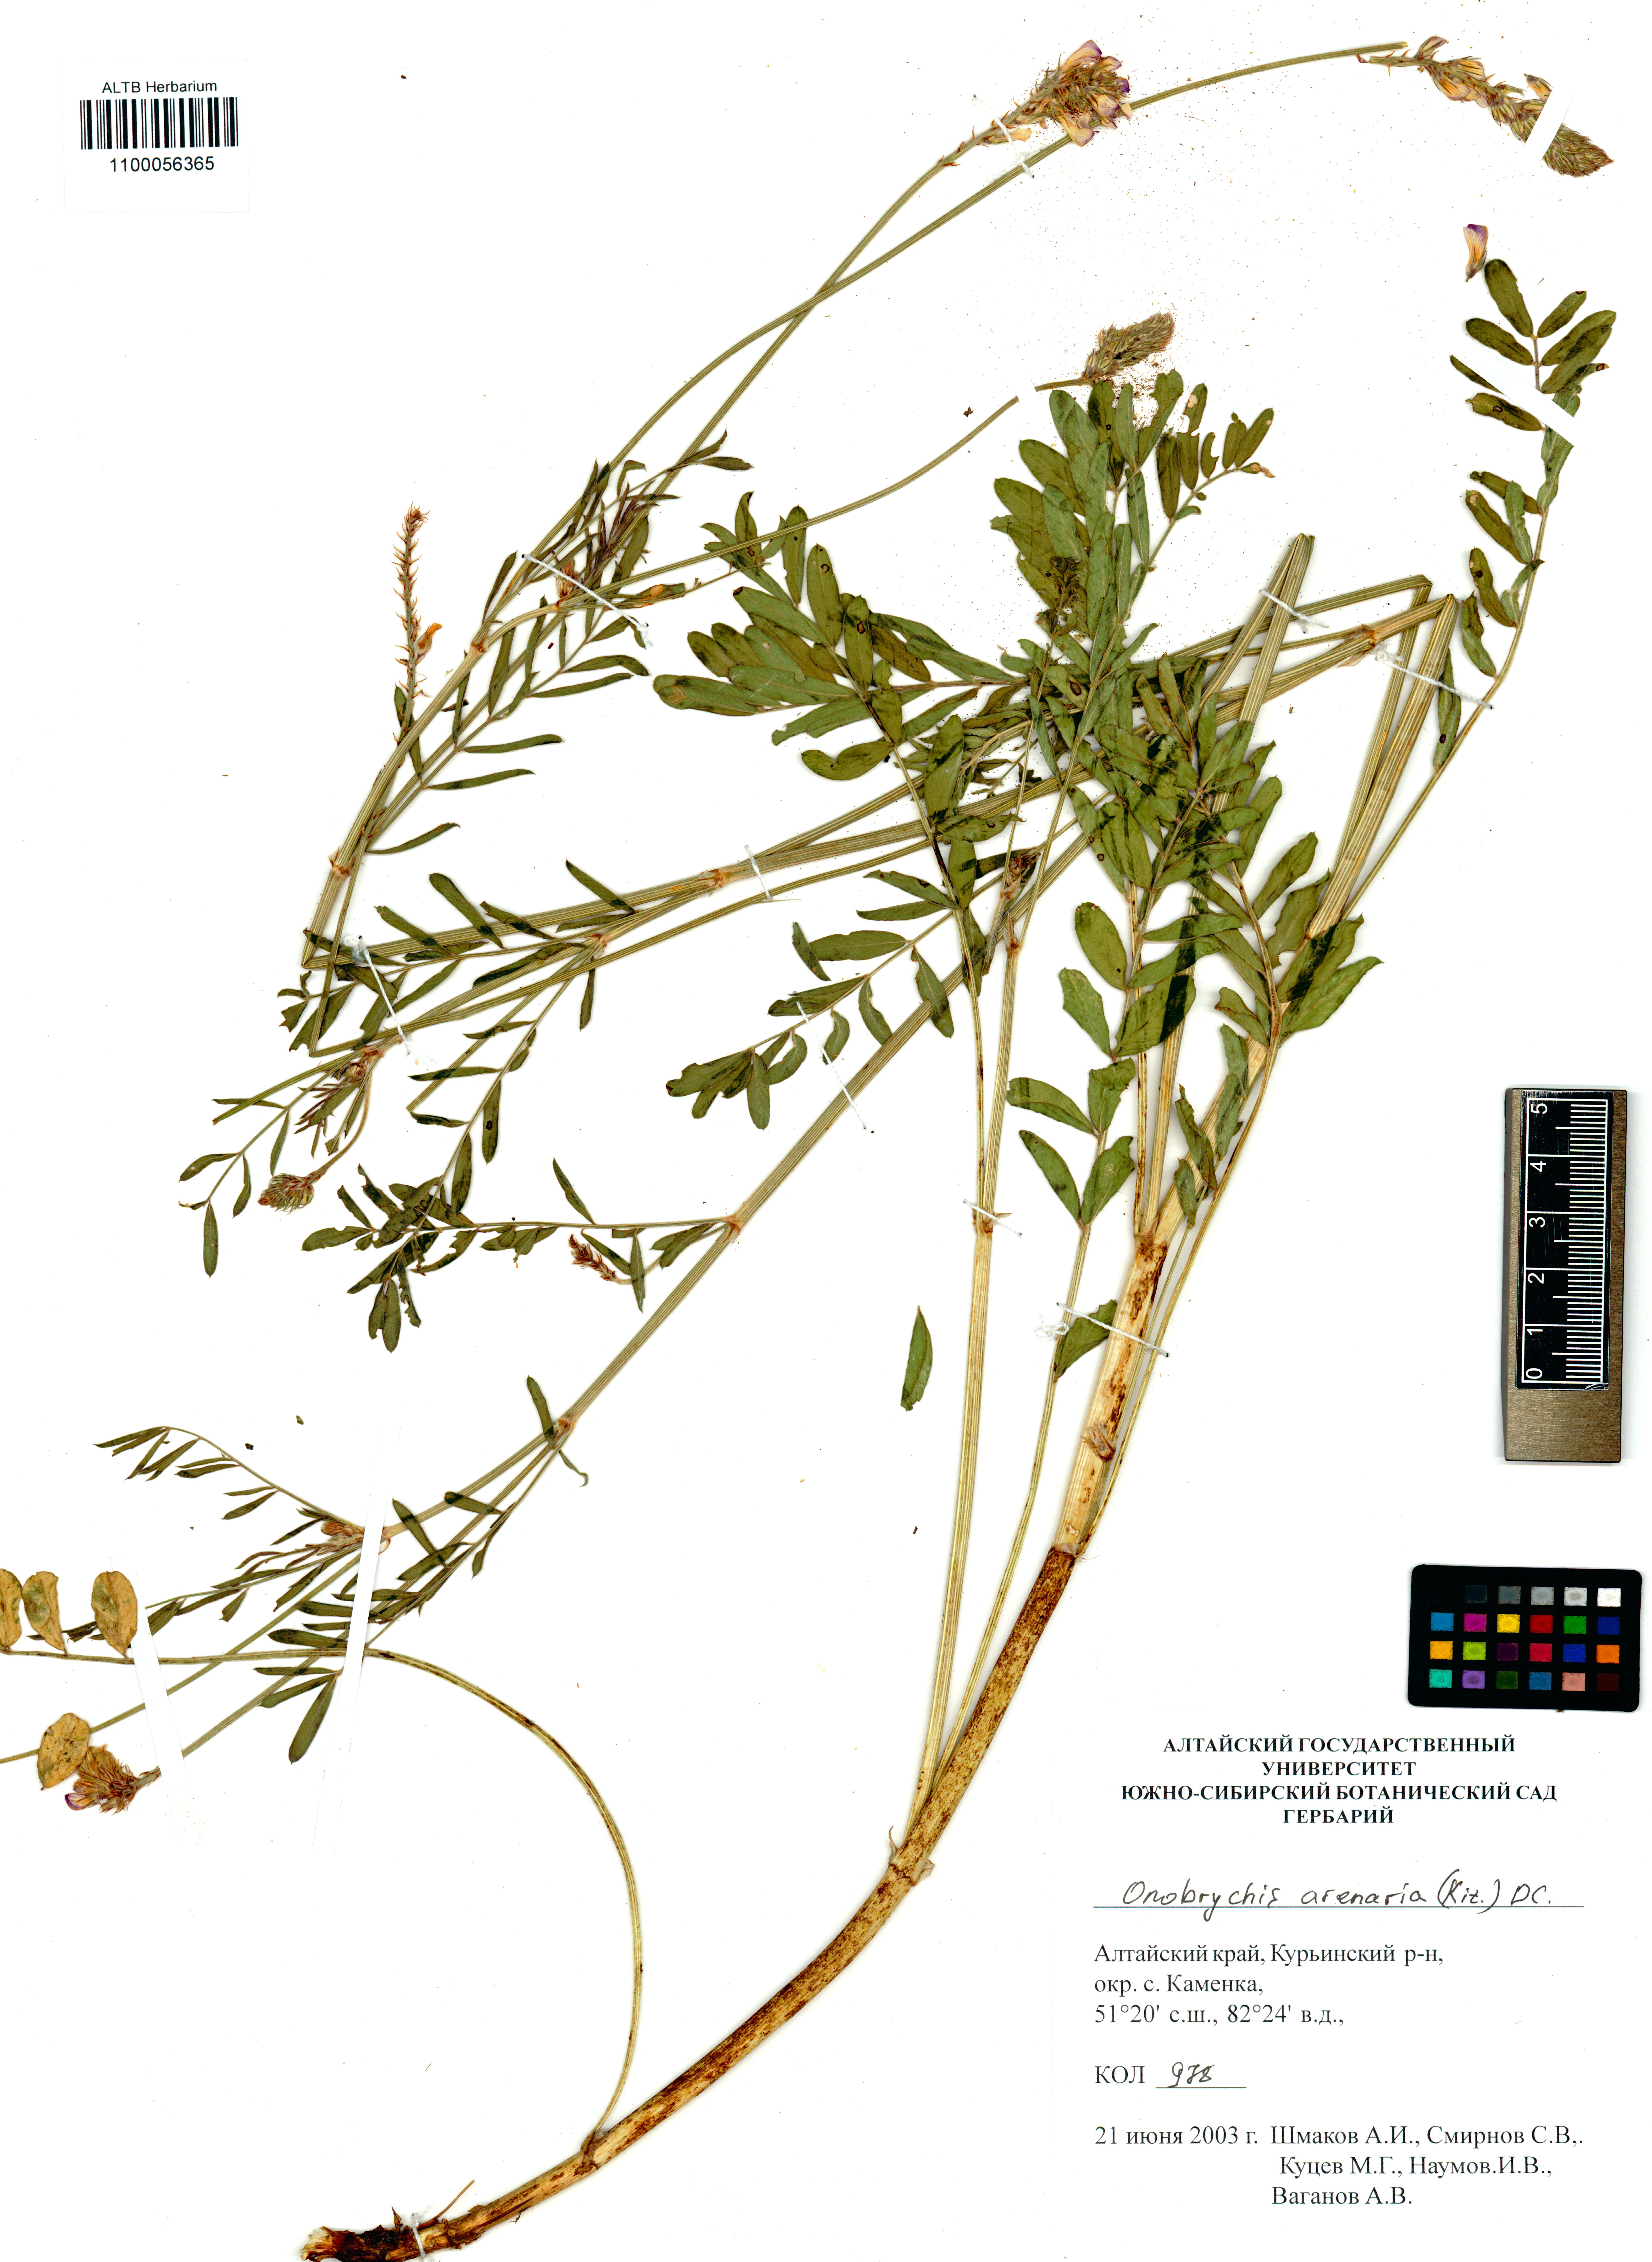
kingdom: Plantae
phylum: Tracheophyta
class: Magnoliopsida
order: Fabales
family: Fabaceae
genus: Onobrychis
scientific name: Onobrychis arenaria
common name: Sand esparcet
